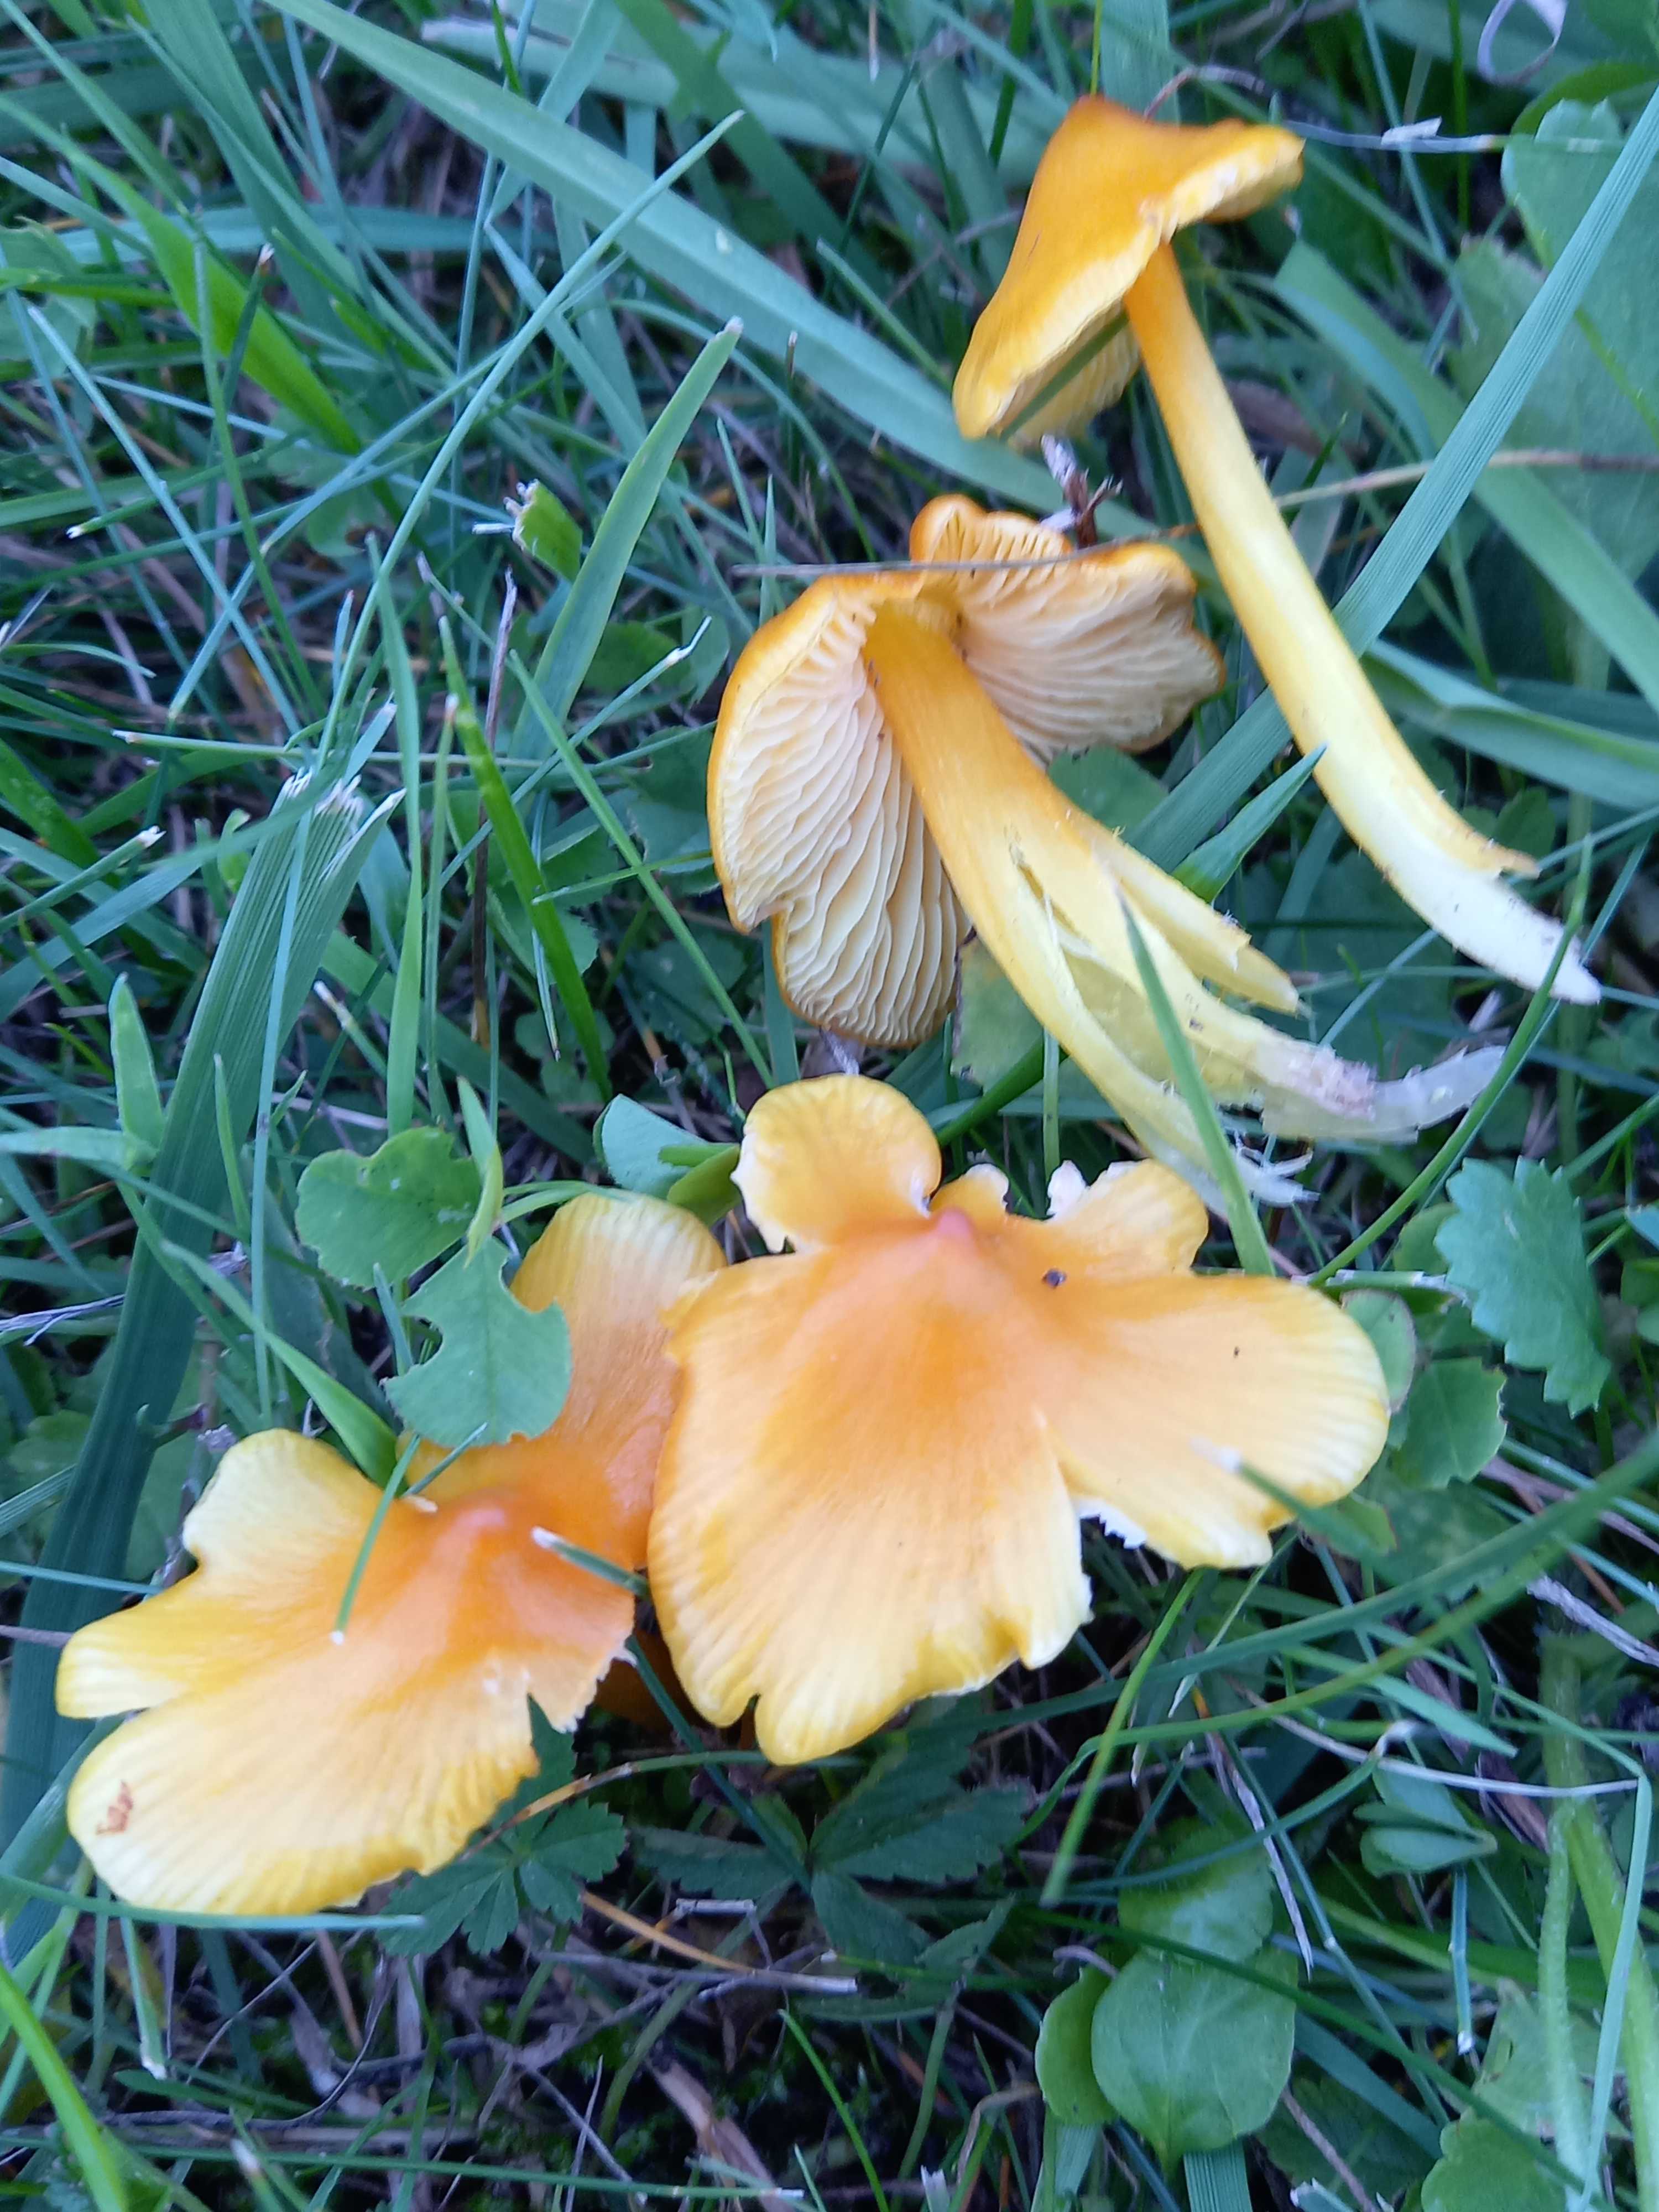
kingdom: Fungi
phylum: Basidiomycota
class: Agaricomycetes
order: Agaricales
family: Hygrophoraceae
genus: Hygrocybe
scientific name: Hygrocybe
